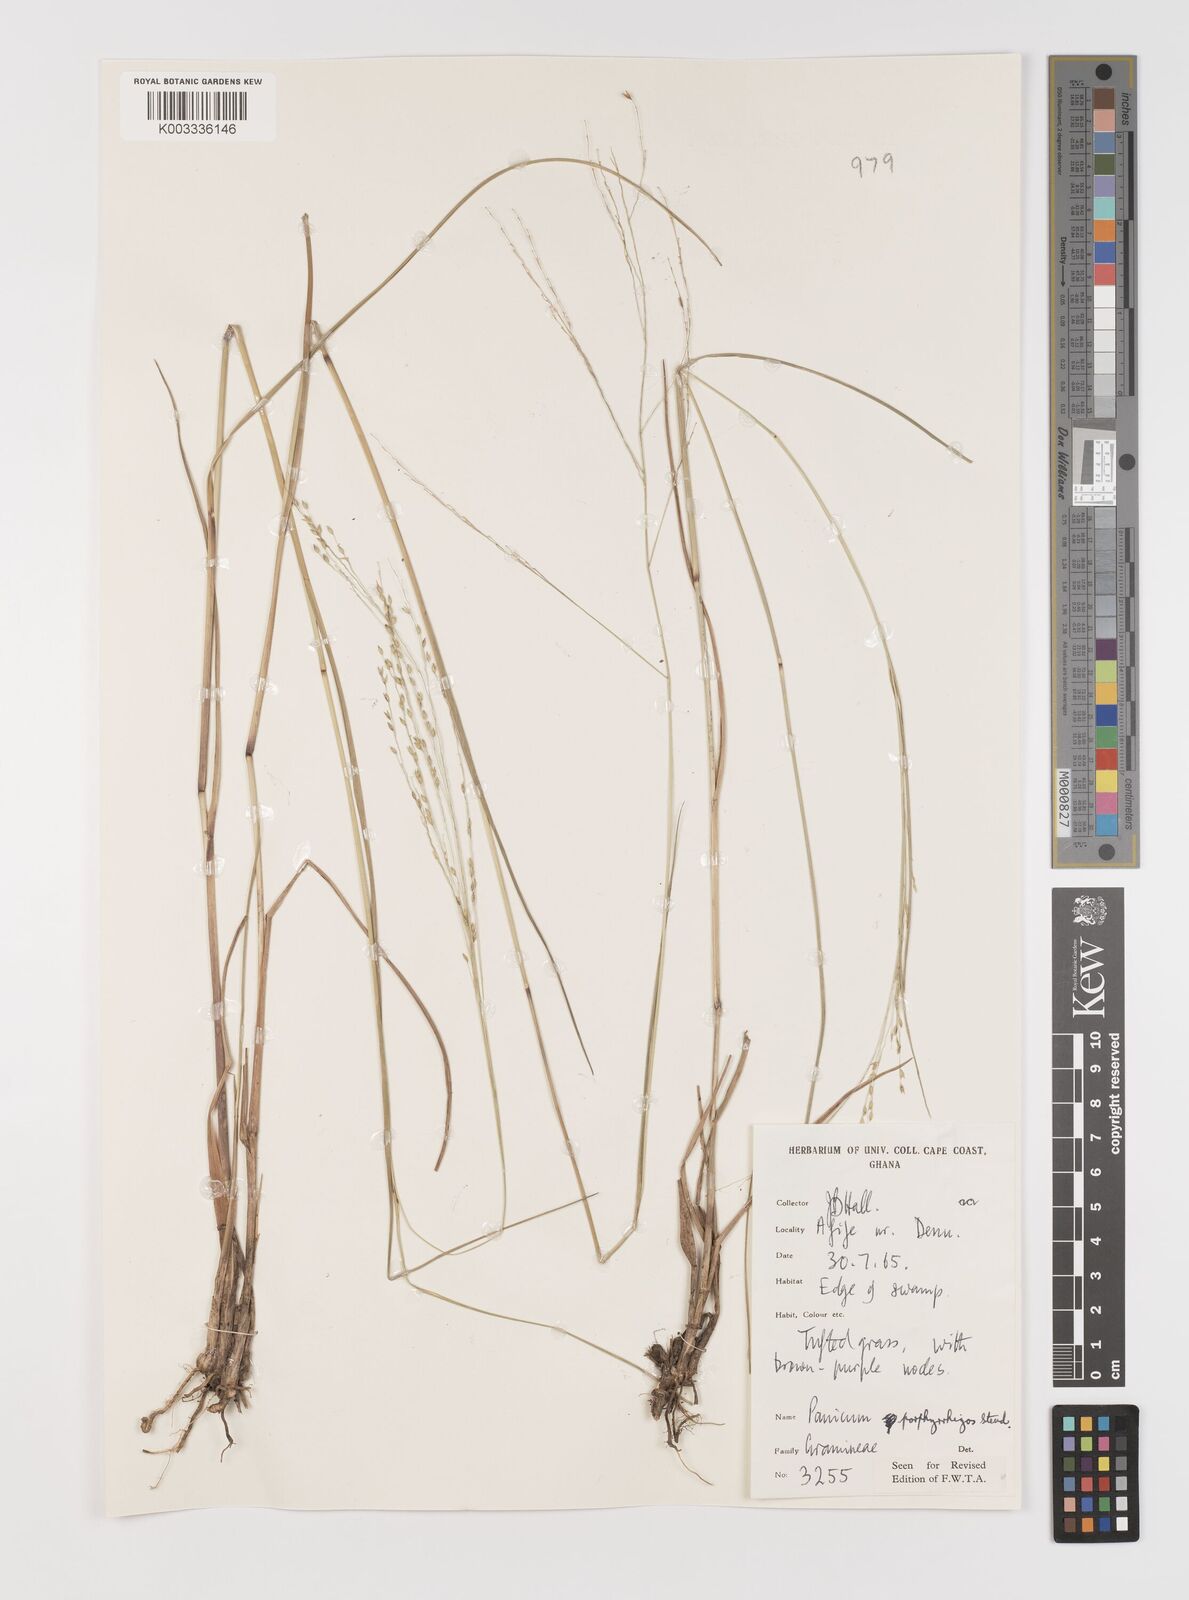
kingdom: Plantae
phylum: Tracheophyta
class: Liliopsida
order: Poales
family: Poaceae
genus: Panicum
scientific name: Panicum porphyrrhizos
